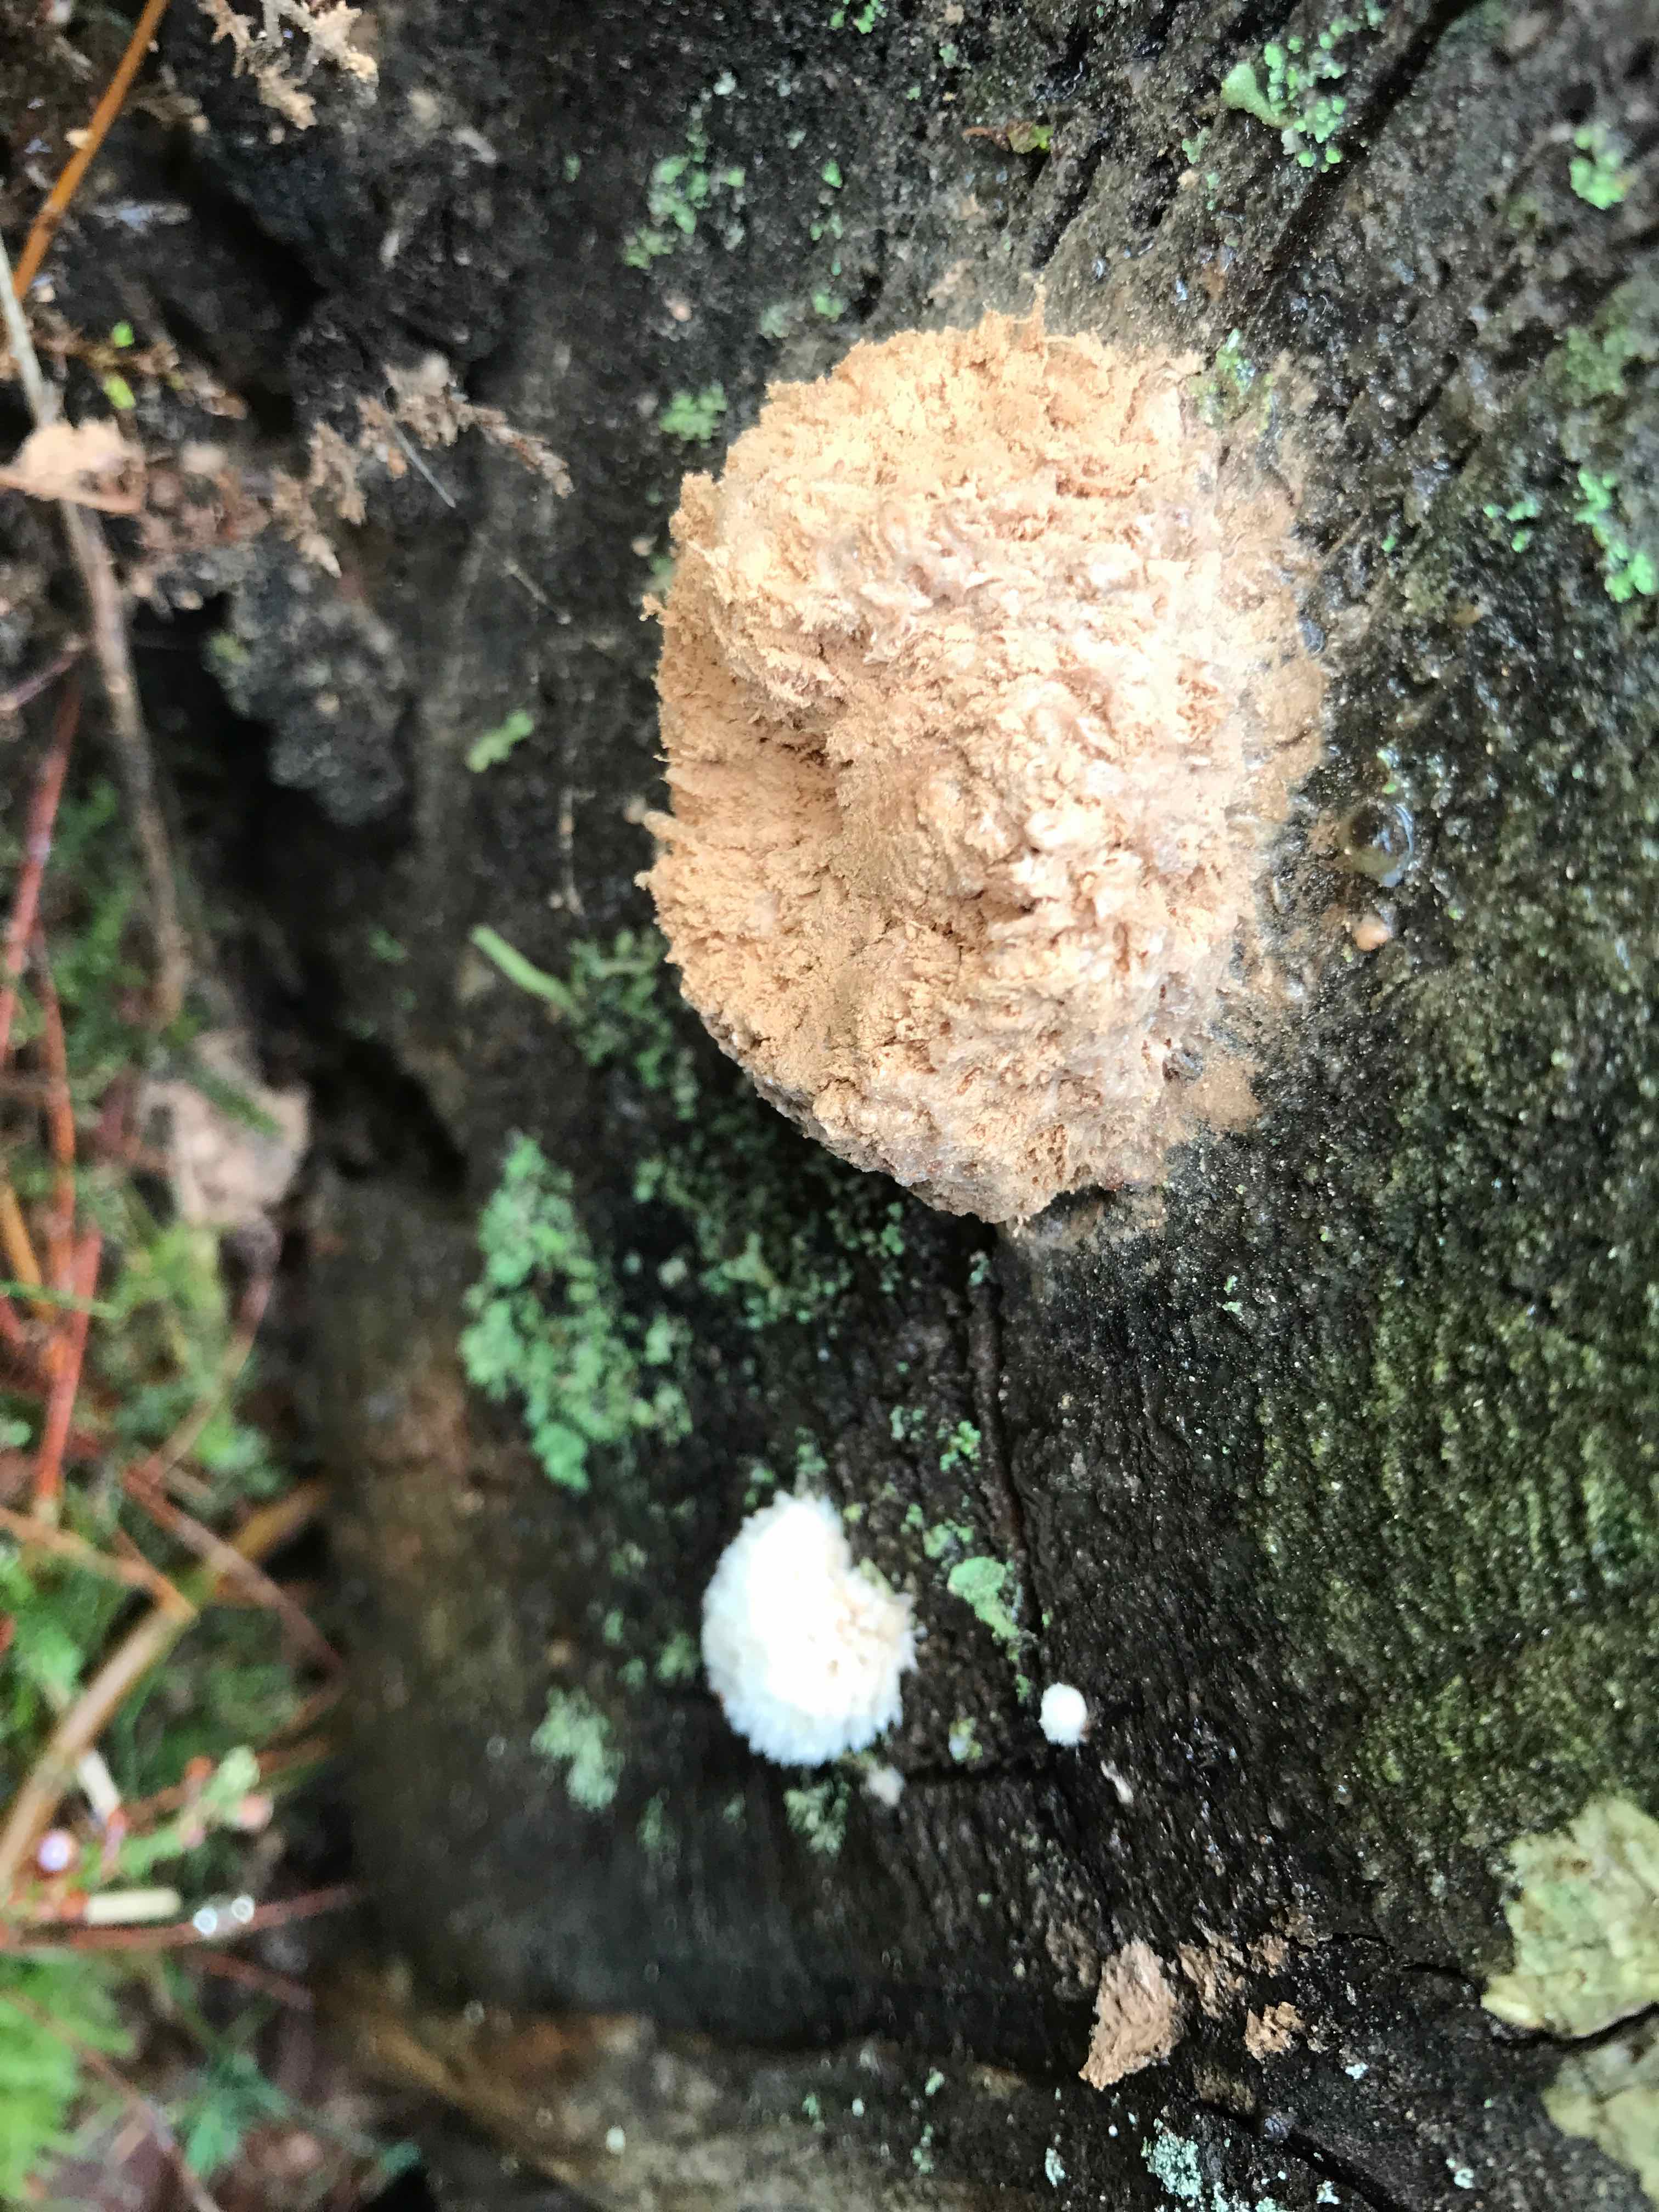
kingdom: Fungi
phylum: Basidiomycota
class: Agaricomycetes
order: Polyporales
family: Dacryobolaceae
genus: Postia
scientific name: Postia ptychogaster
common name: støvende kødporesvamp
